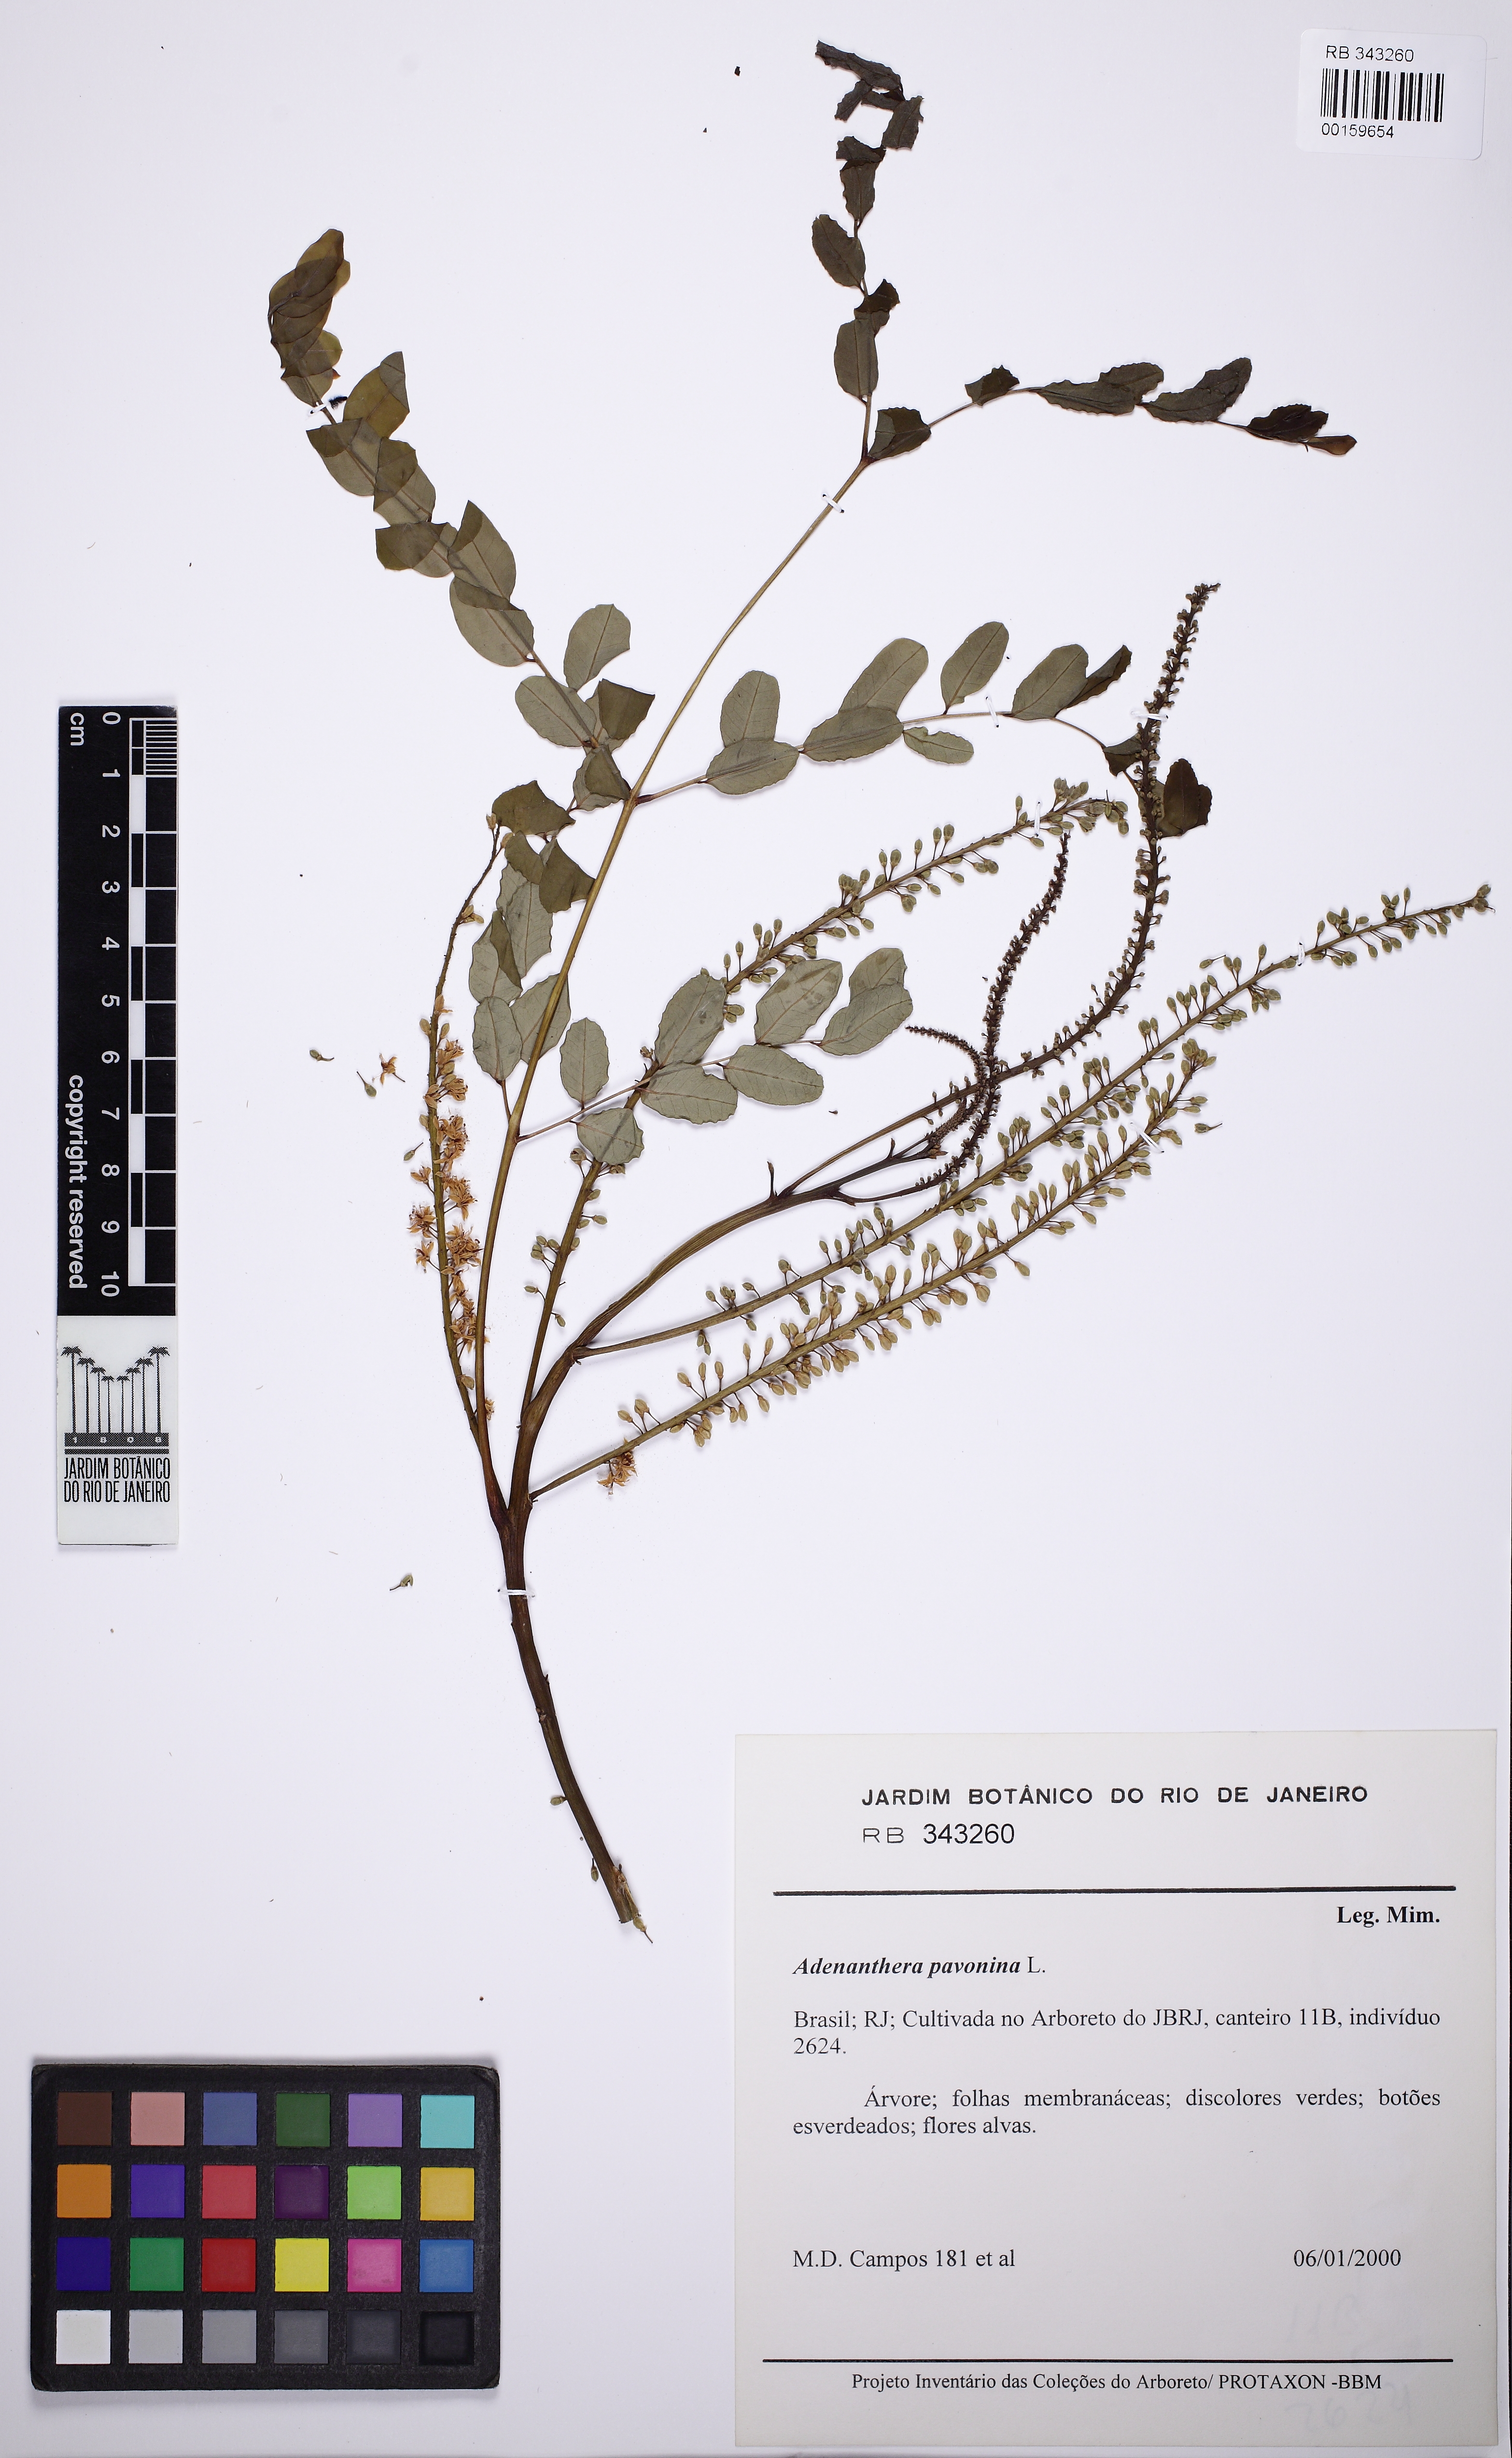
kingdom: Plantae
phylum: Tracheophyta
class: Magnoliopsida
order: Fabales
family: Fabaceae
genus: Adenanthera
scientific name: Adenanthera pavonina
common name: Red beadtree
